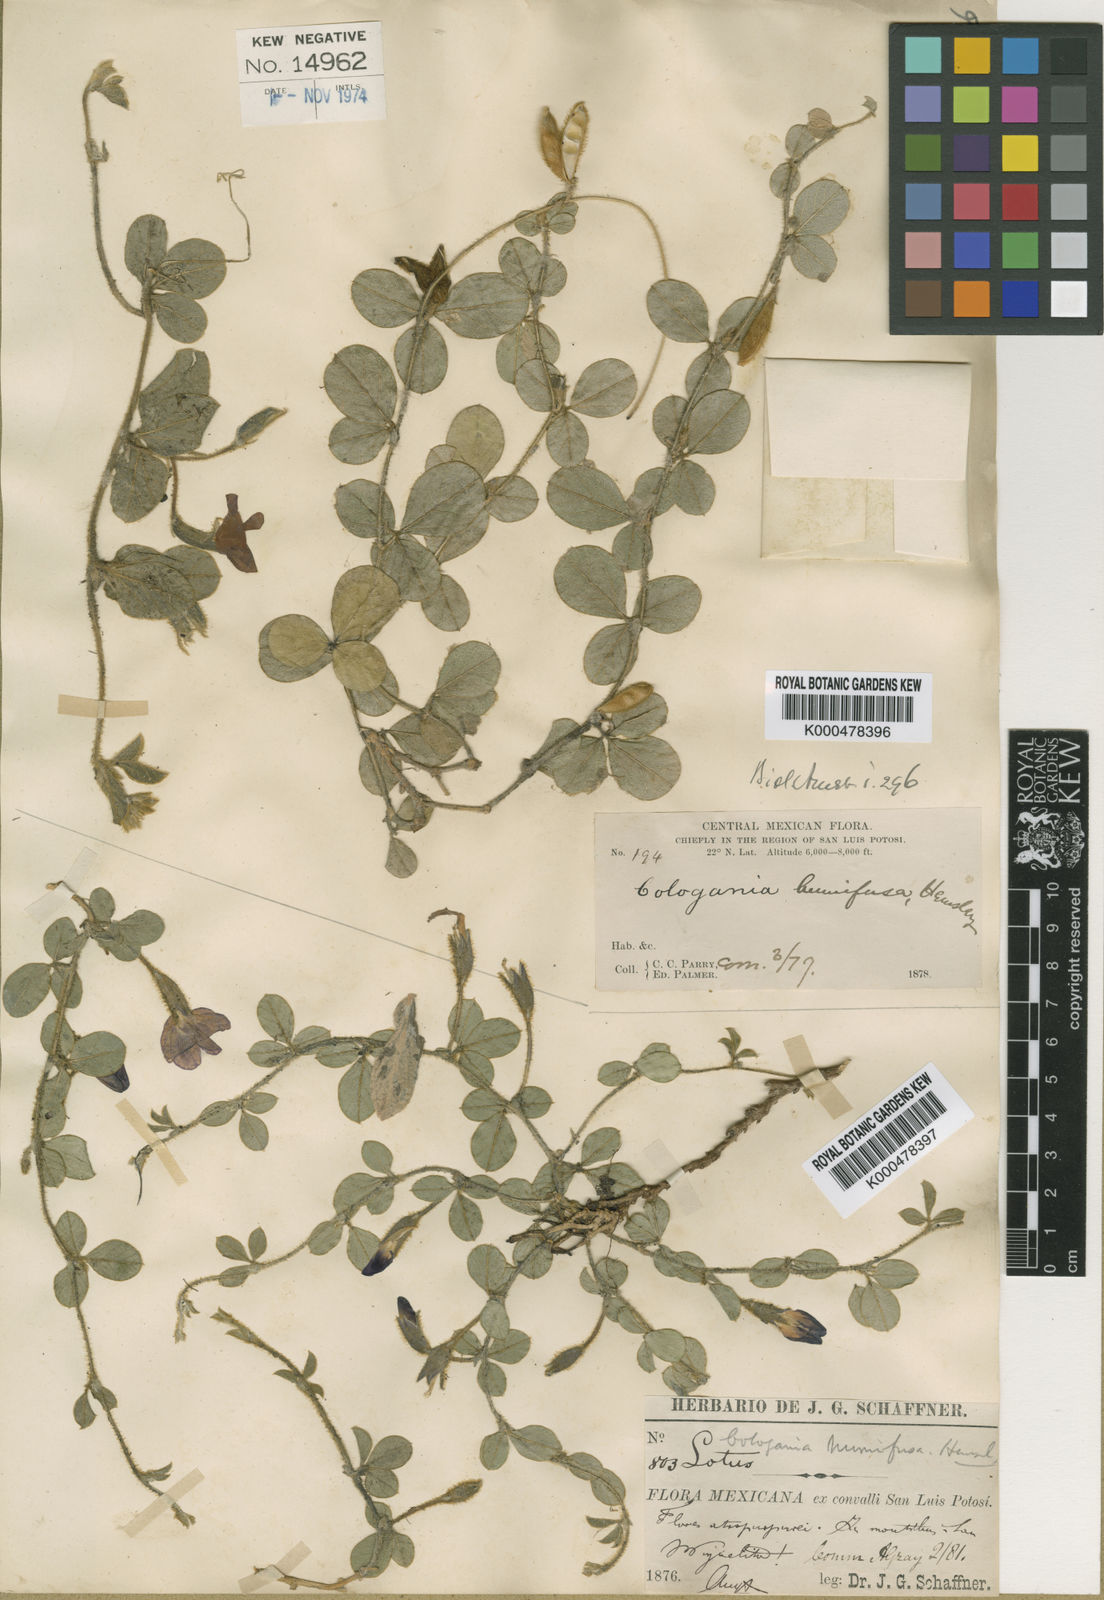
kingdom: Plantae
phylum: Tracheophyta
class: Magnoliopsida
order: Fabales
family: Fabaceae
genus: Cologania
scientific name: Cologania obovata
